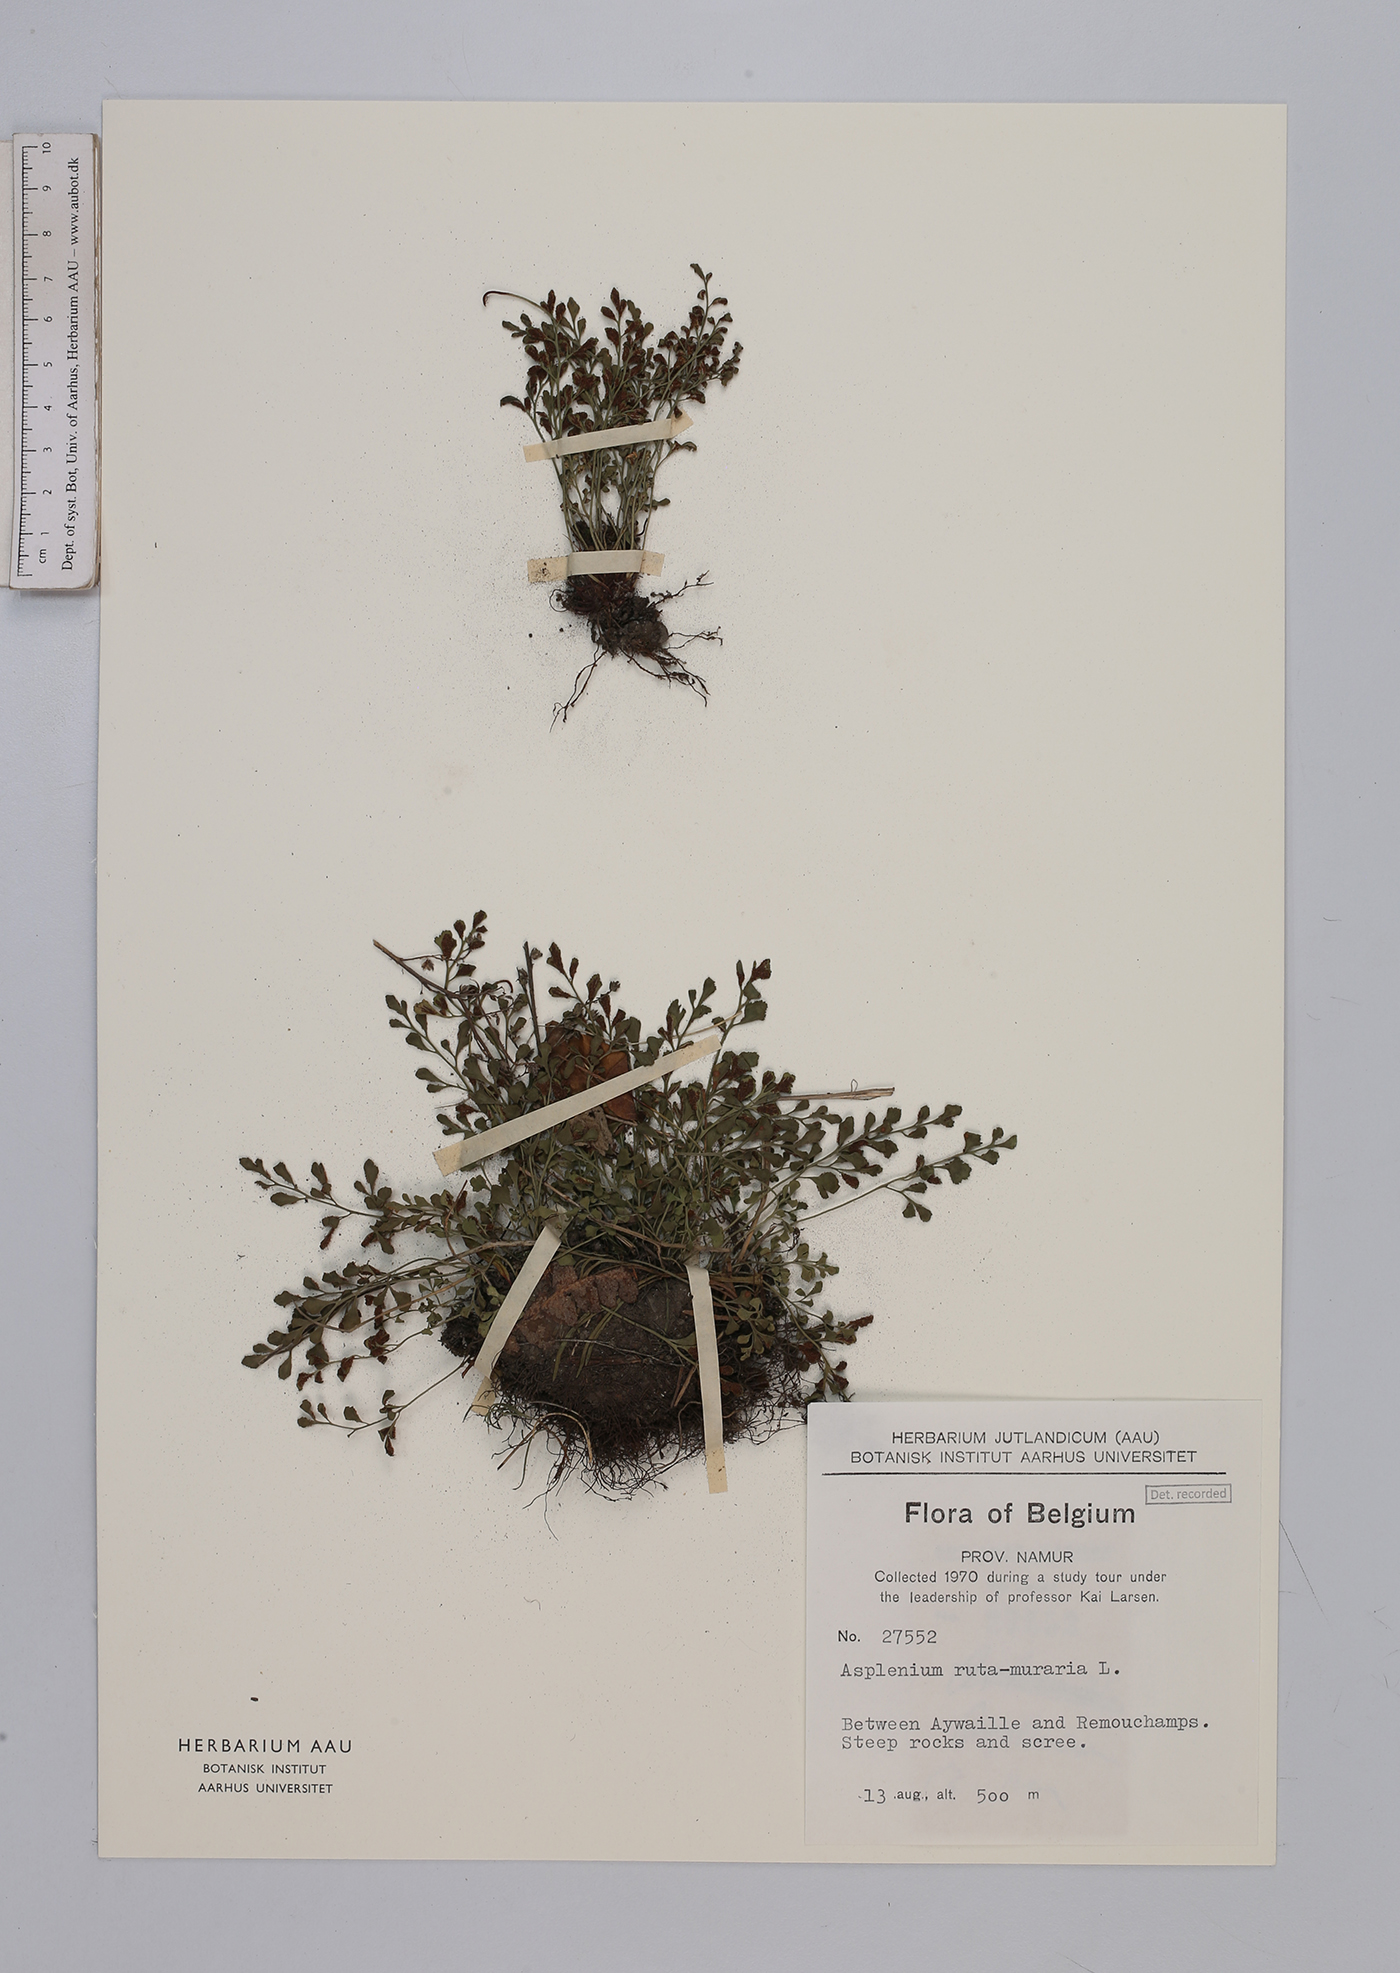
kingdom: Plantae
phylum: Tracheophyta
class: Polypodiopsida
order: Polypodiales
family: Aspleniaceae
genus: Asplenium
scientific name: Asplenium ruta-muraria
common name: Wall-rue
